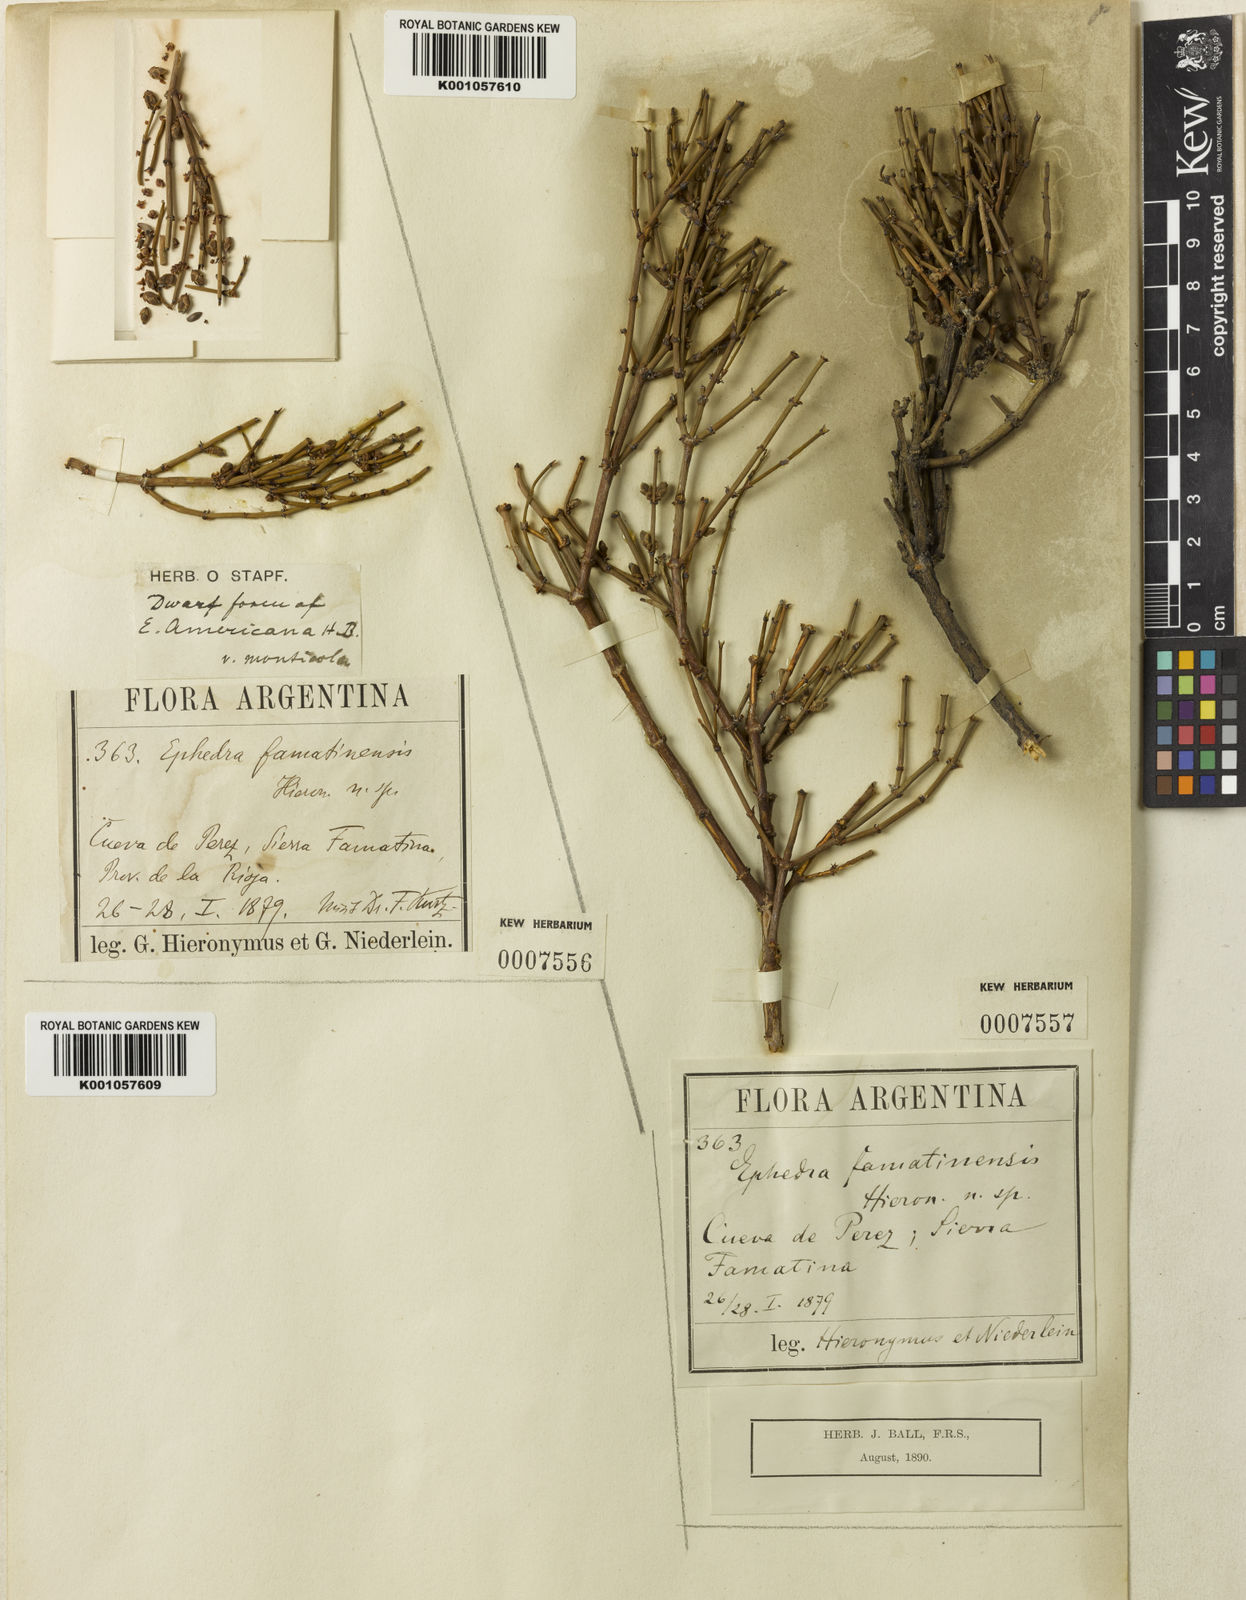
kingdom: Plantae
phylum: Tracheophyta
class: Gnetopsida
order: Ephedrales
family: Ephedraceae
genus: Ephedra
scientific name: Ephedra chilensis
